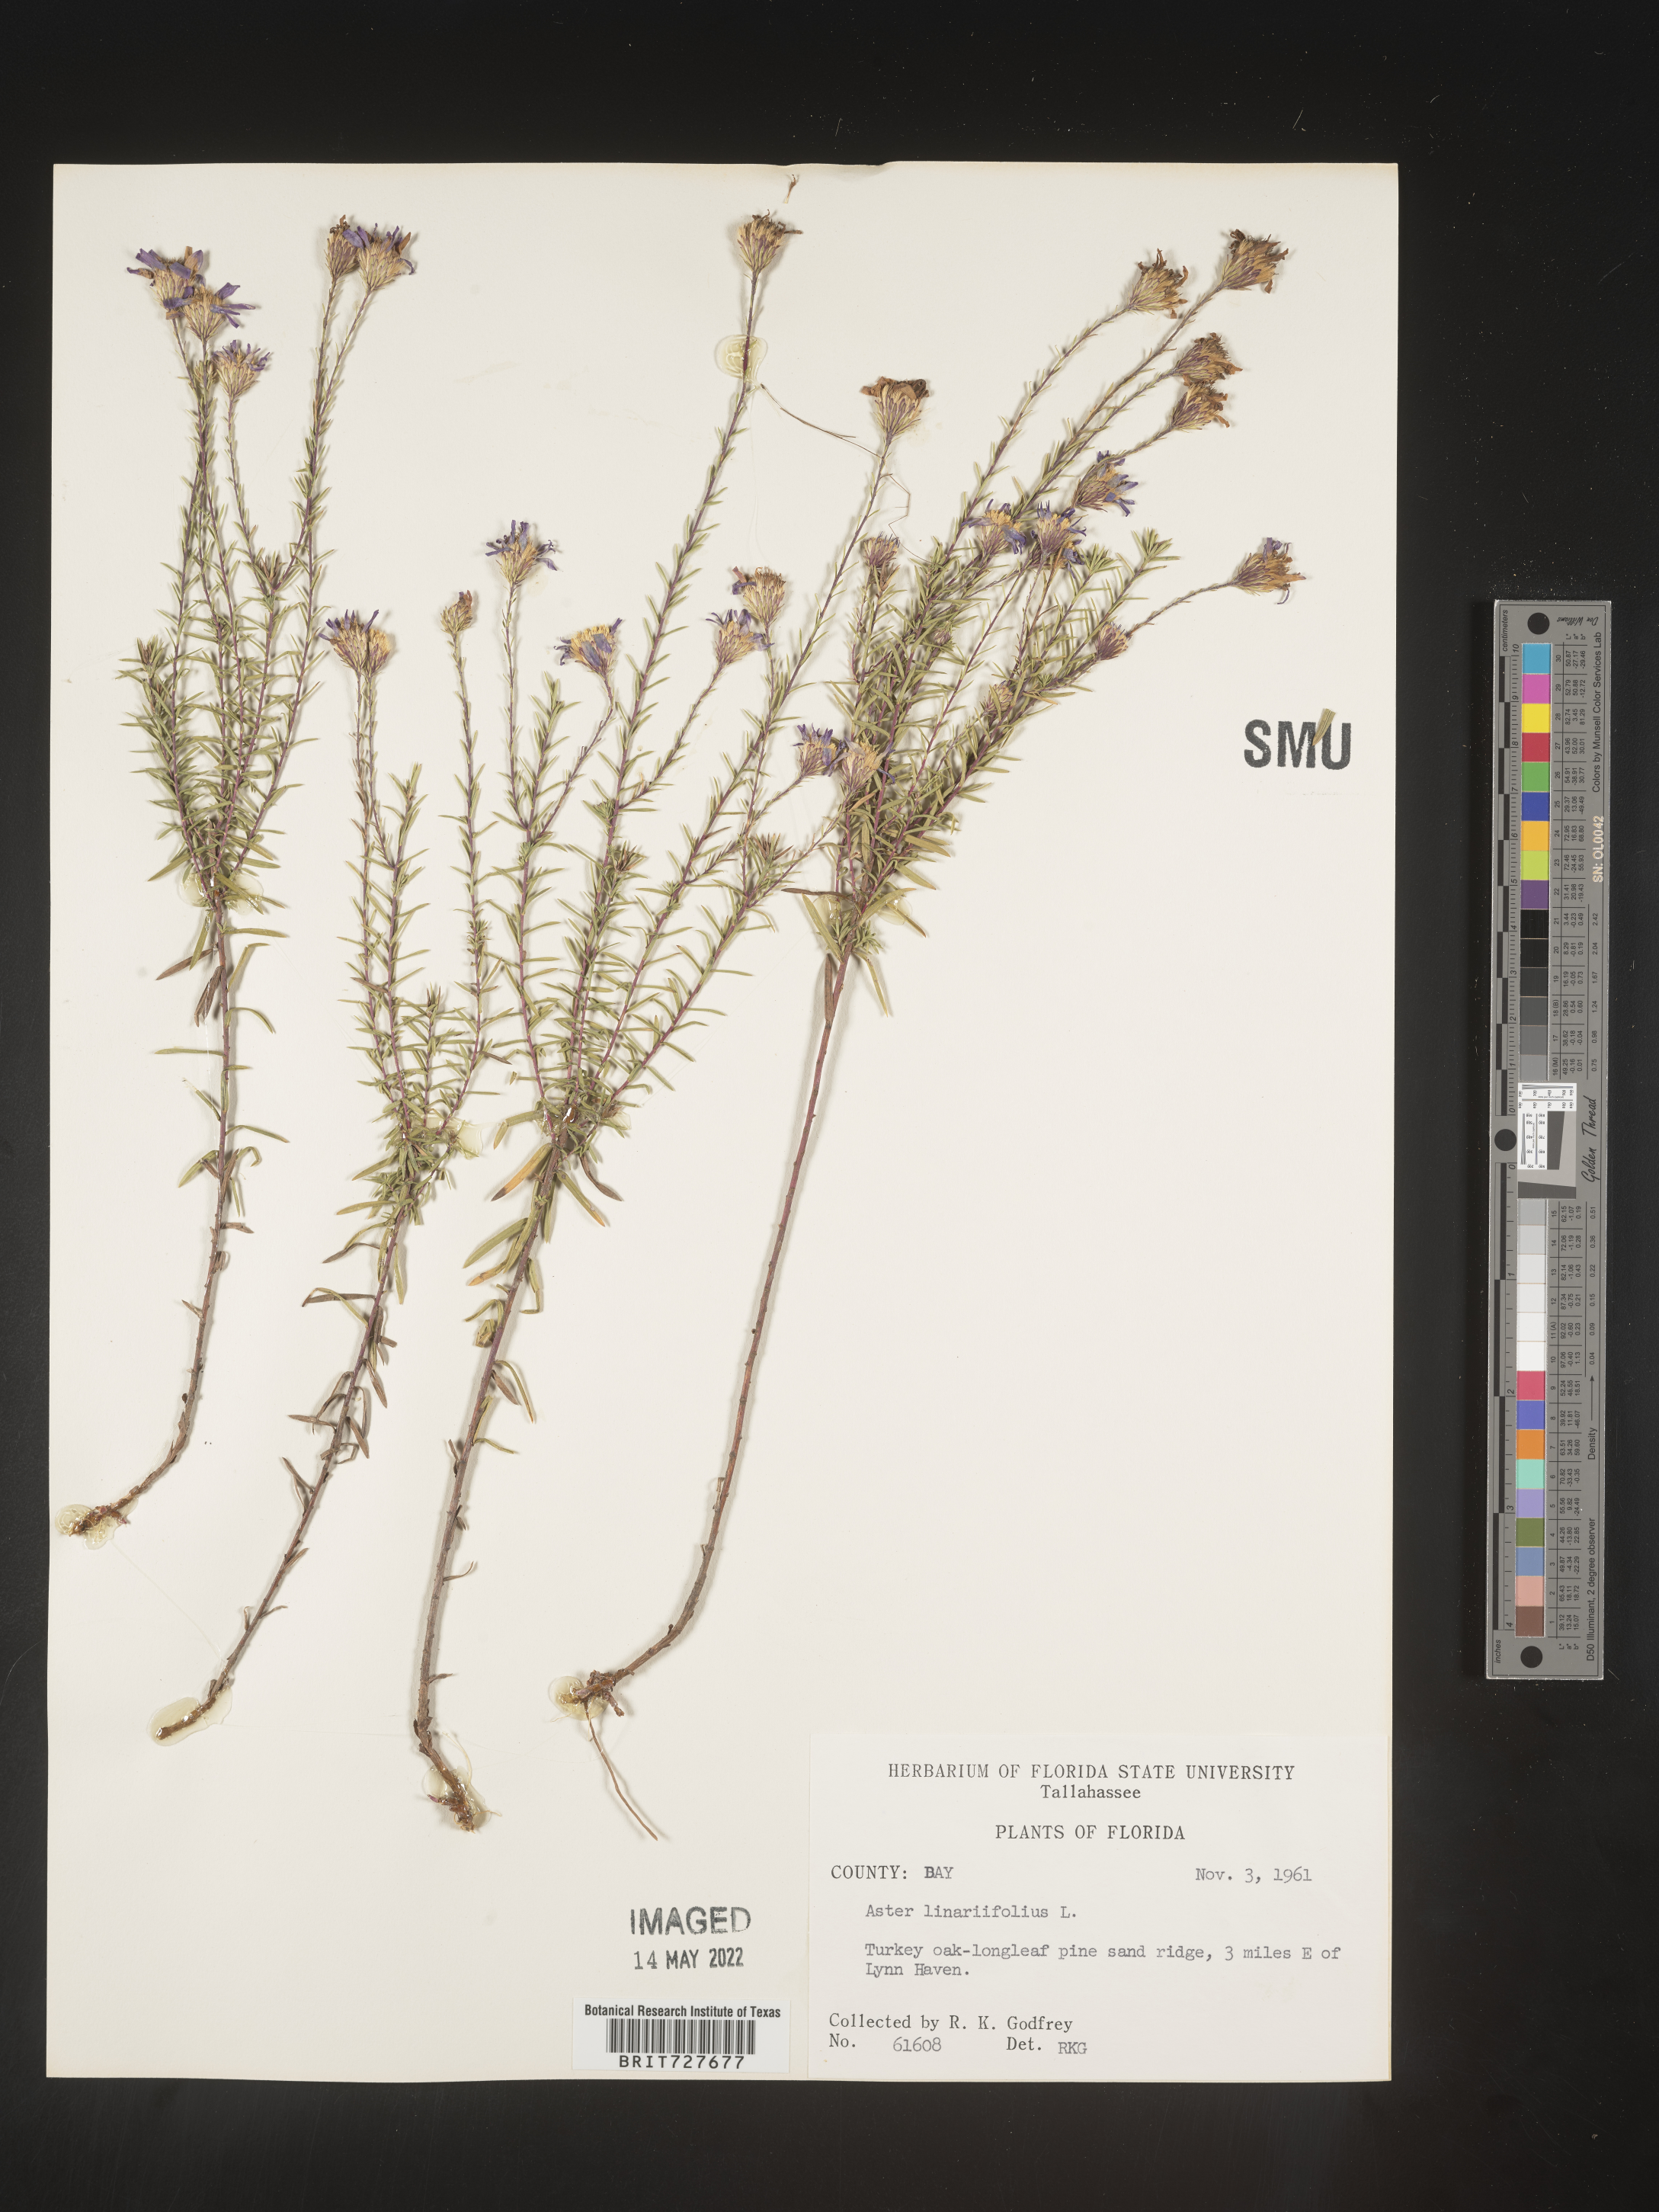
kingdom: Plantae
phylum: Tracheophyta
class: Magnoliopsida
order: Asterales
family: Asteraceae
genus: Ionactis
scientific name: Ionactis linariifolia
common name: Flax-leaf aster
